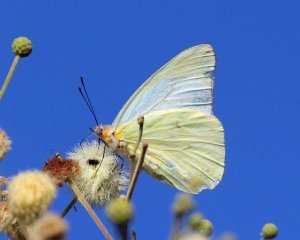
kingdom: Animalia
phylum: Arthropoda
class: Insecta
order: Lepidoptera
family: Pieridae
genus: Melete
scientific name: Melete lycimnia
